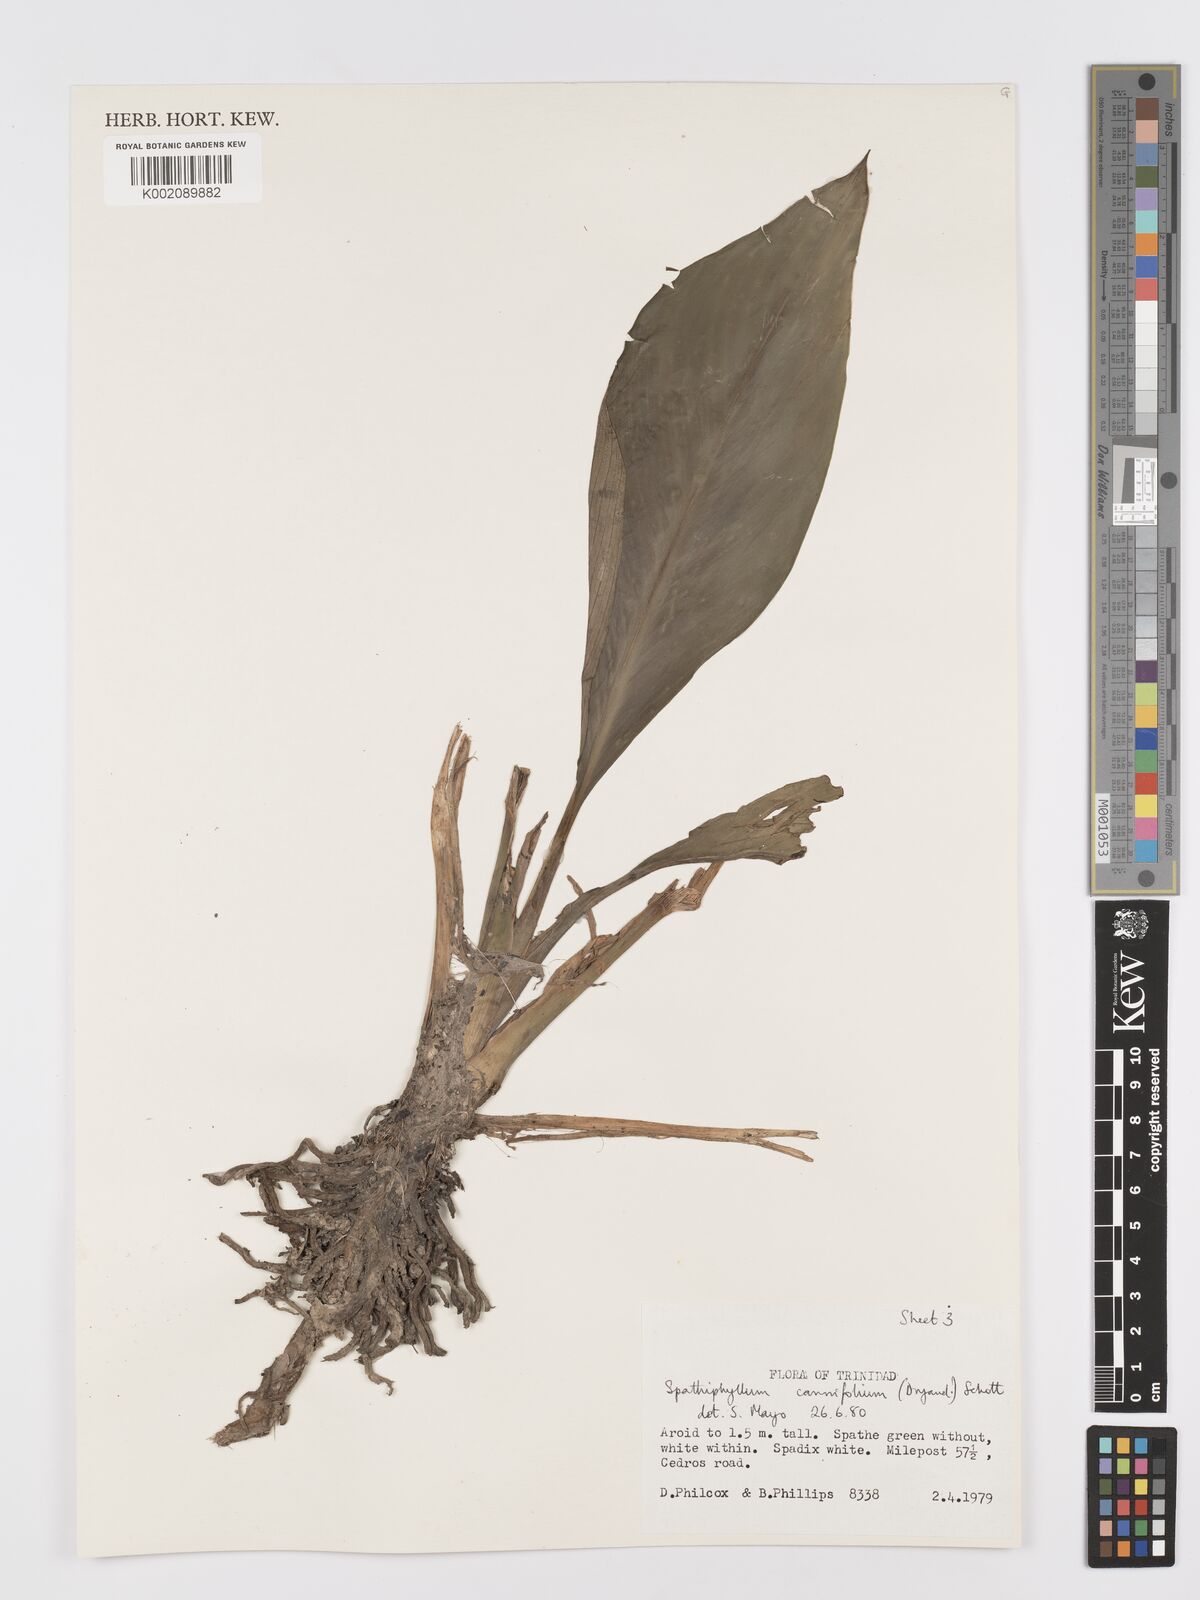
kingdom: Plantae
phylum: Tracheophyta
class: Liliopsida
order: Alismatales
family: Araceae
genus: Spathiphyllum
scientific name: Spathiphyllum cannifolium
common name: Spatheflower
